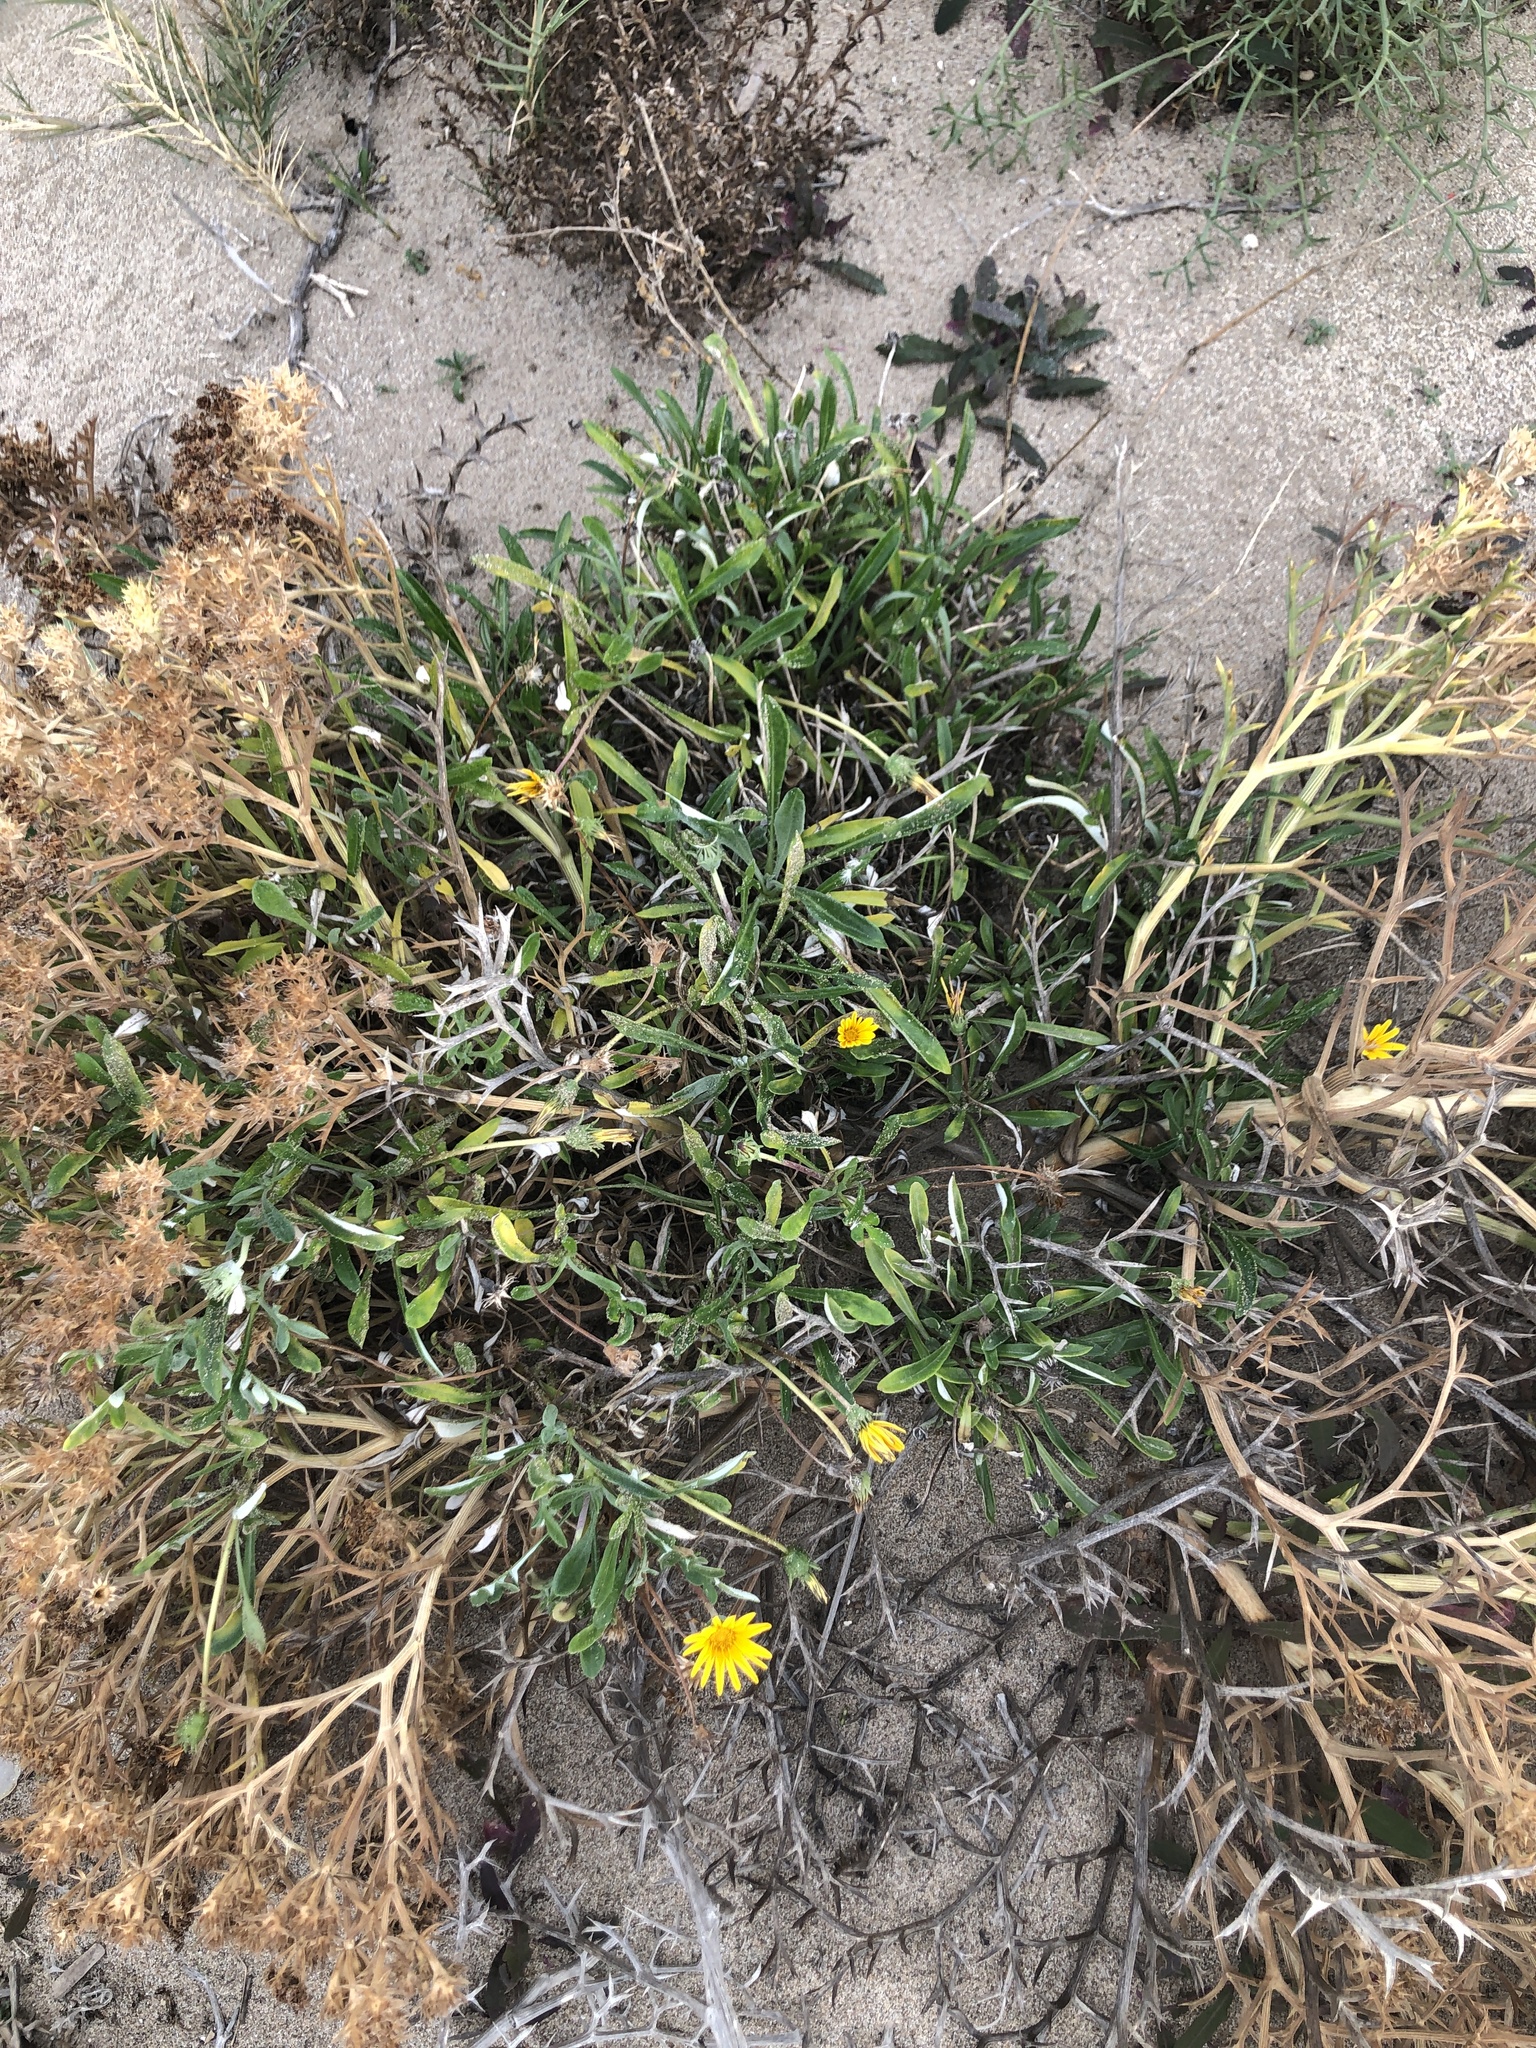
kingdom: Plantae
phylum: Tracheophyta
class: Magnoliopsida
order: Asterales
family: Asteraceae
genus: Gazania
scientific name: Gazania rigens
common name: Treasureflower
